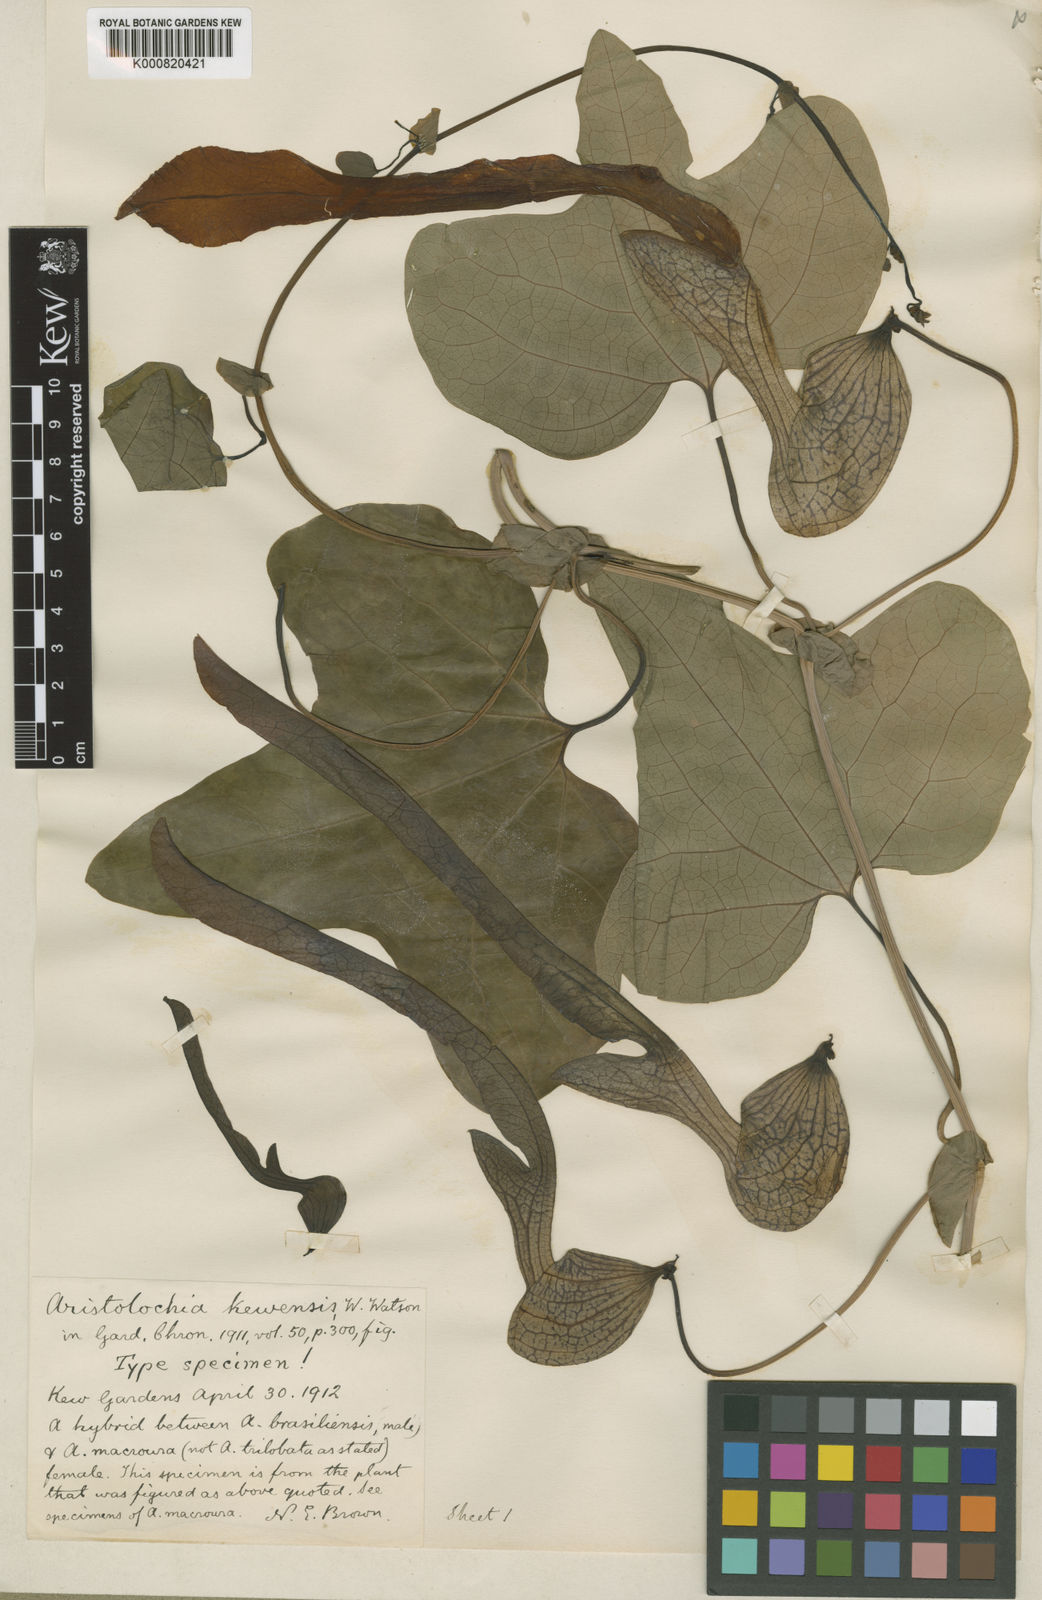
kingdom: Plantae
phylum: Tracheophyta
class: Magnoliopsida
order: Piperales
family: Aristolochiaceae
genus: Aristolochia
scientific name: Aristolochia
